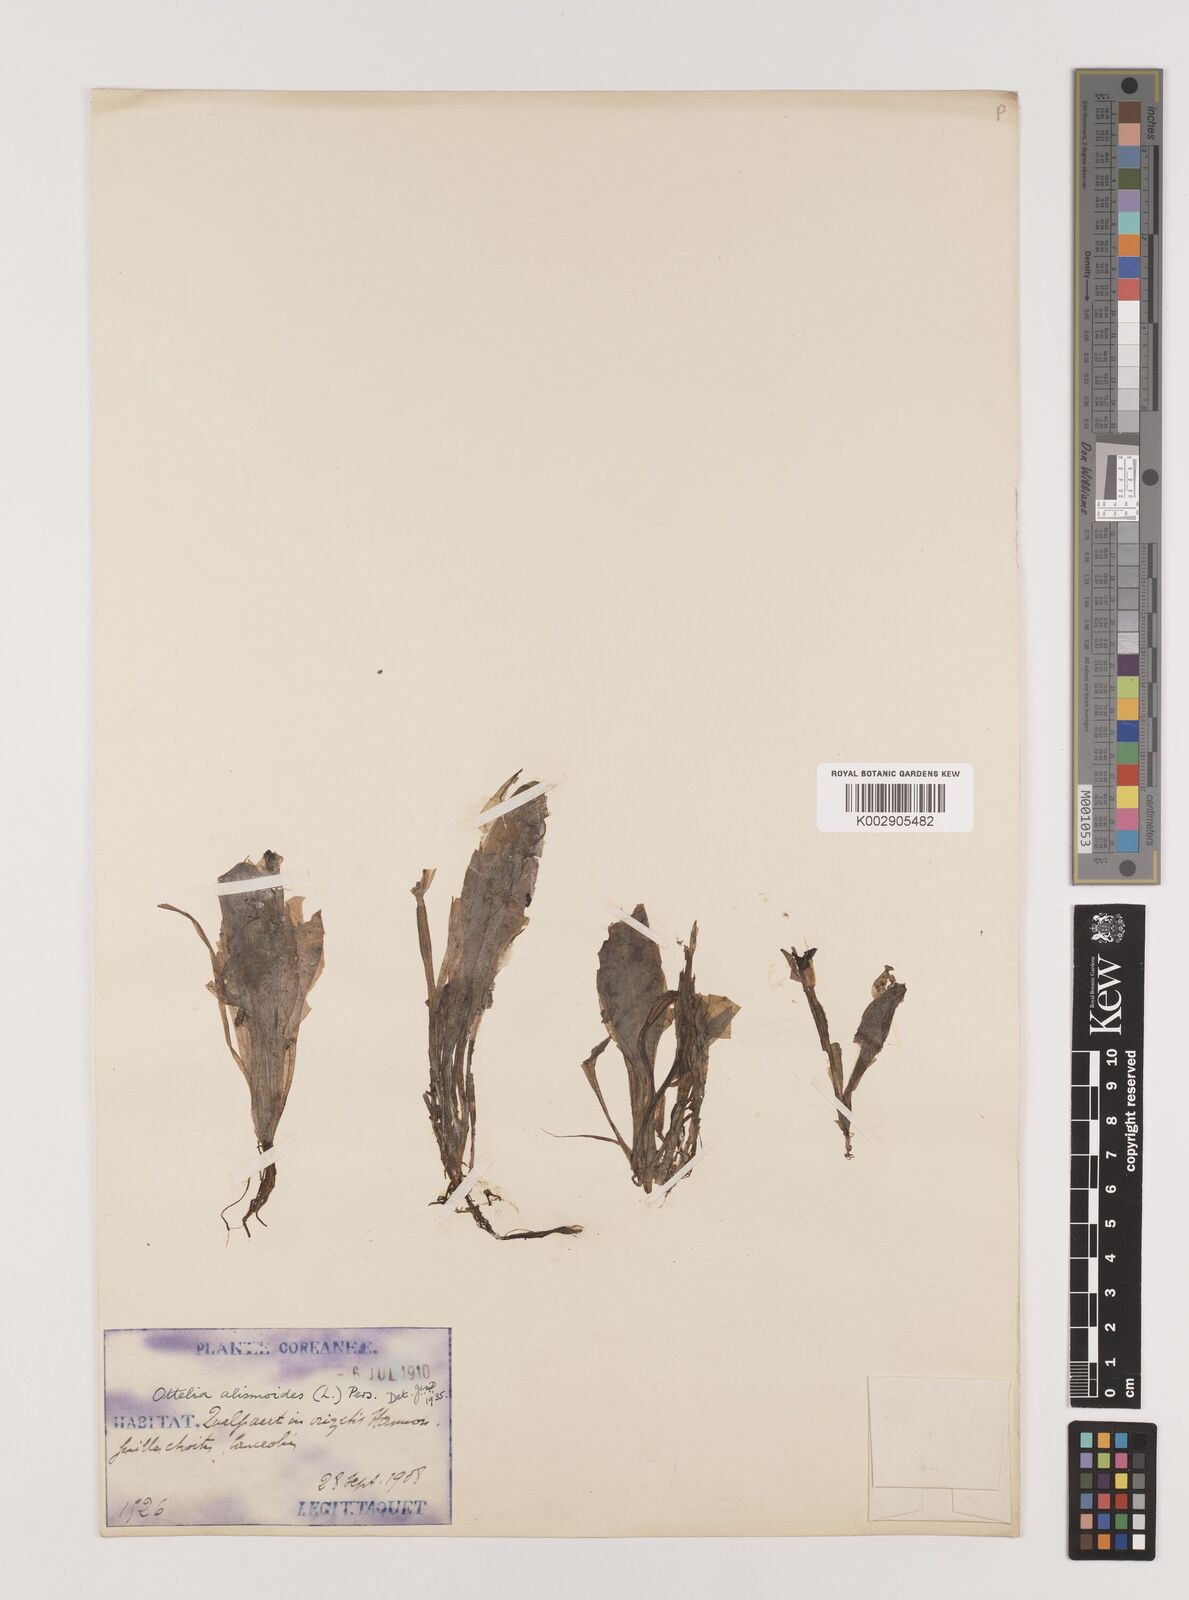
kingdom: Plantae
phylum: Tracheophyta
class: Liliopsida
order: Alismatales
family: Hydrocharitaceae
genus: Ottelia
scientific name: Ottelia alismoides
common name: Duck-lettuce
